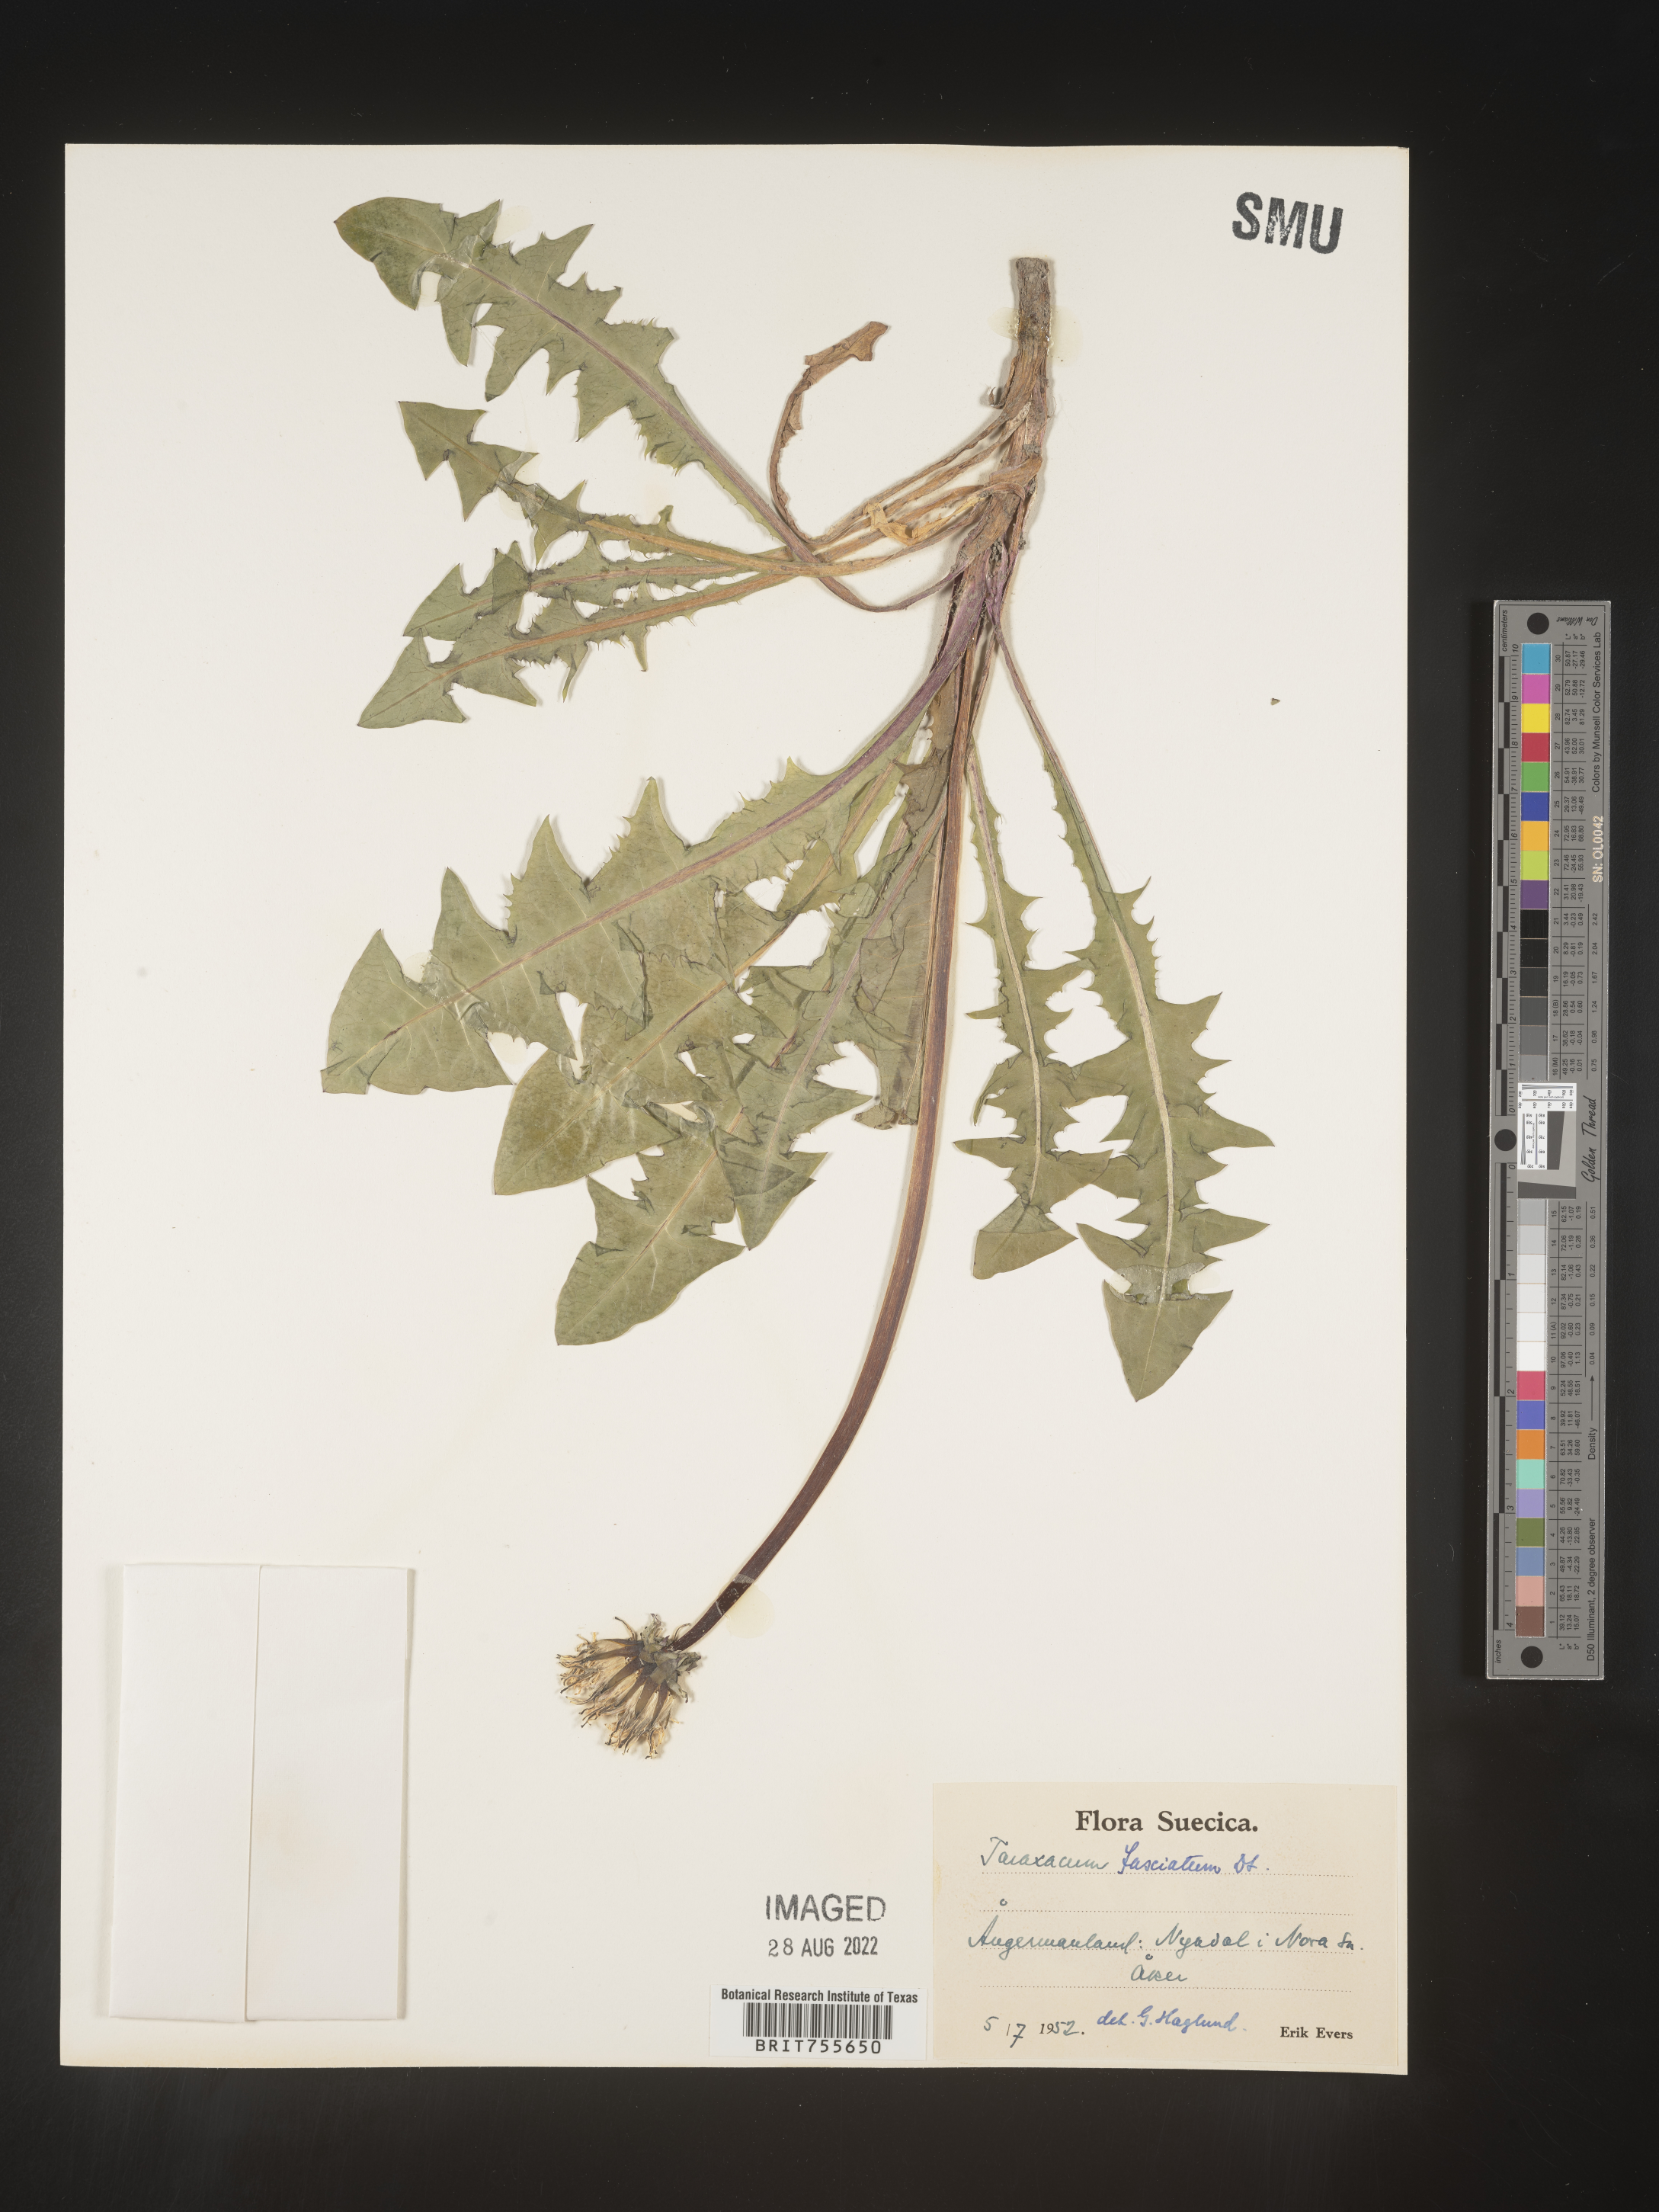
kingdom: Plantae
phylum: Tracheophyta
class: Magnoliopsida
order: Asterales
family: Asteraceae
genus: Taraxacum
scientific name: Taraxacum
